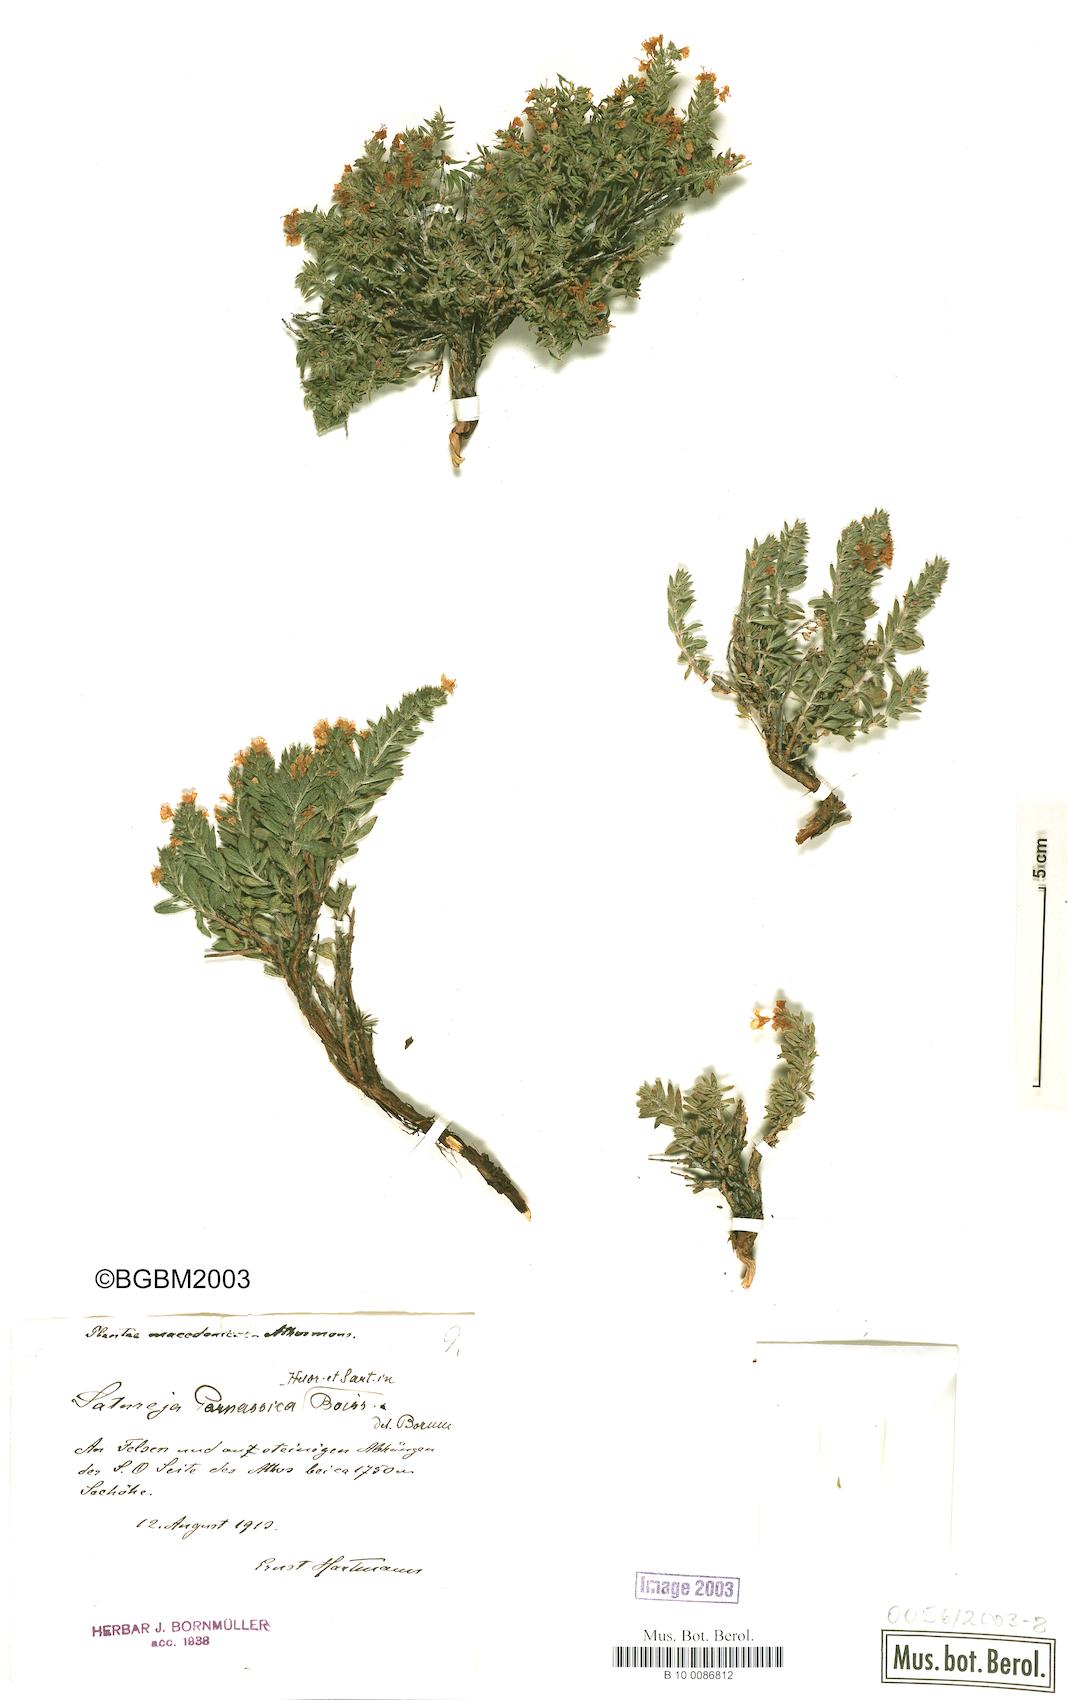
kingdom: Plantae
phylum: Tracheophyta
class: Magnoliopsida
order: Lamiales
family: Lamiaceae
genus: Satureja
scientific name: Satureja parnassica
